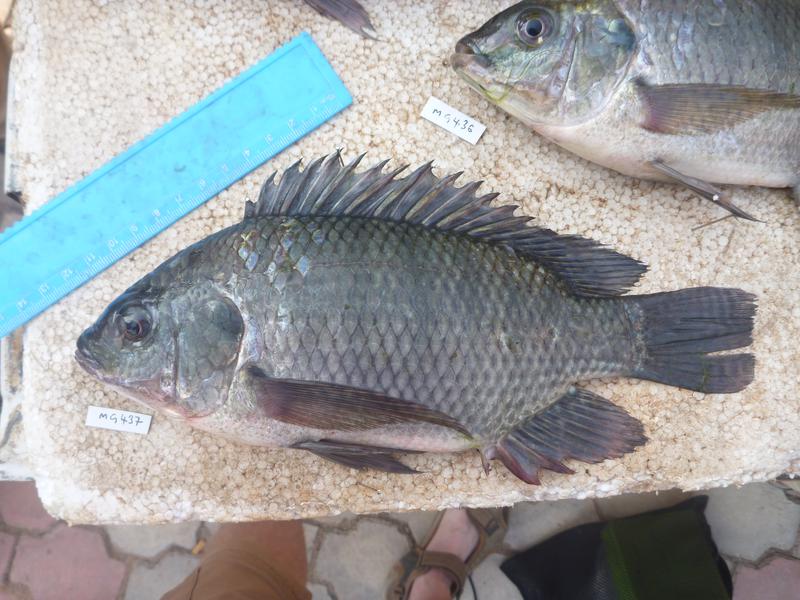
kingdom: Animalia
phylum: Chordata
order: Perciformes
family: Cichlidae
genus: Oreochromis
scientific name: Oreochromis niloticus
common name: Nile tilapia
